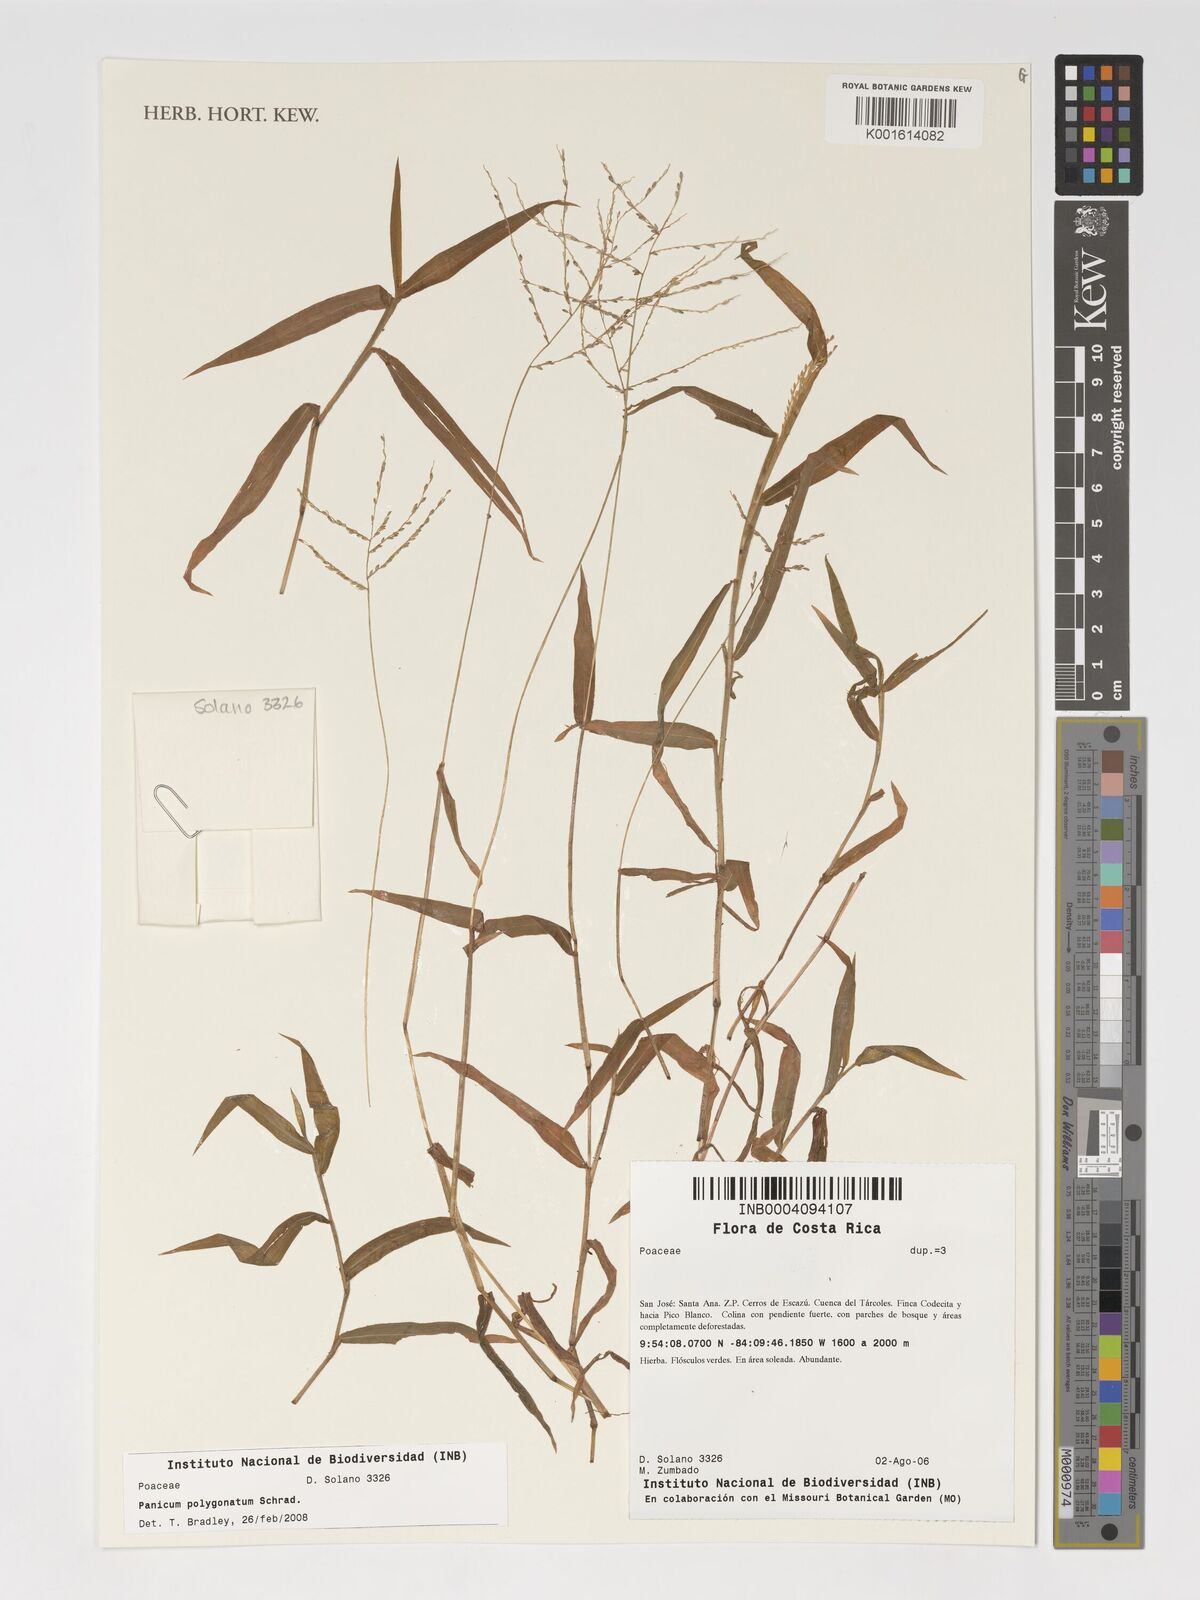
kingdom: Plantae
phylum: Tracheophyta
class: Liliopsida
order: Poales
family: Poaceae
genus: Rugoloa
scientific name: Rugoloa polygonata
